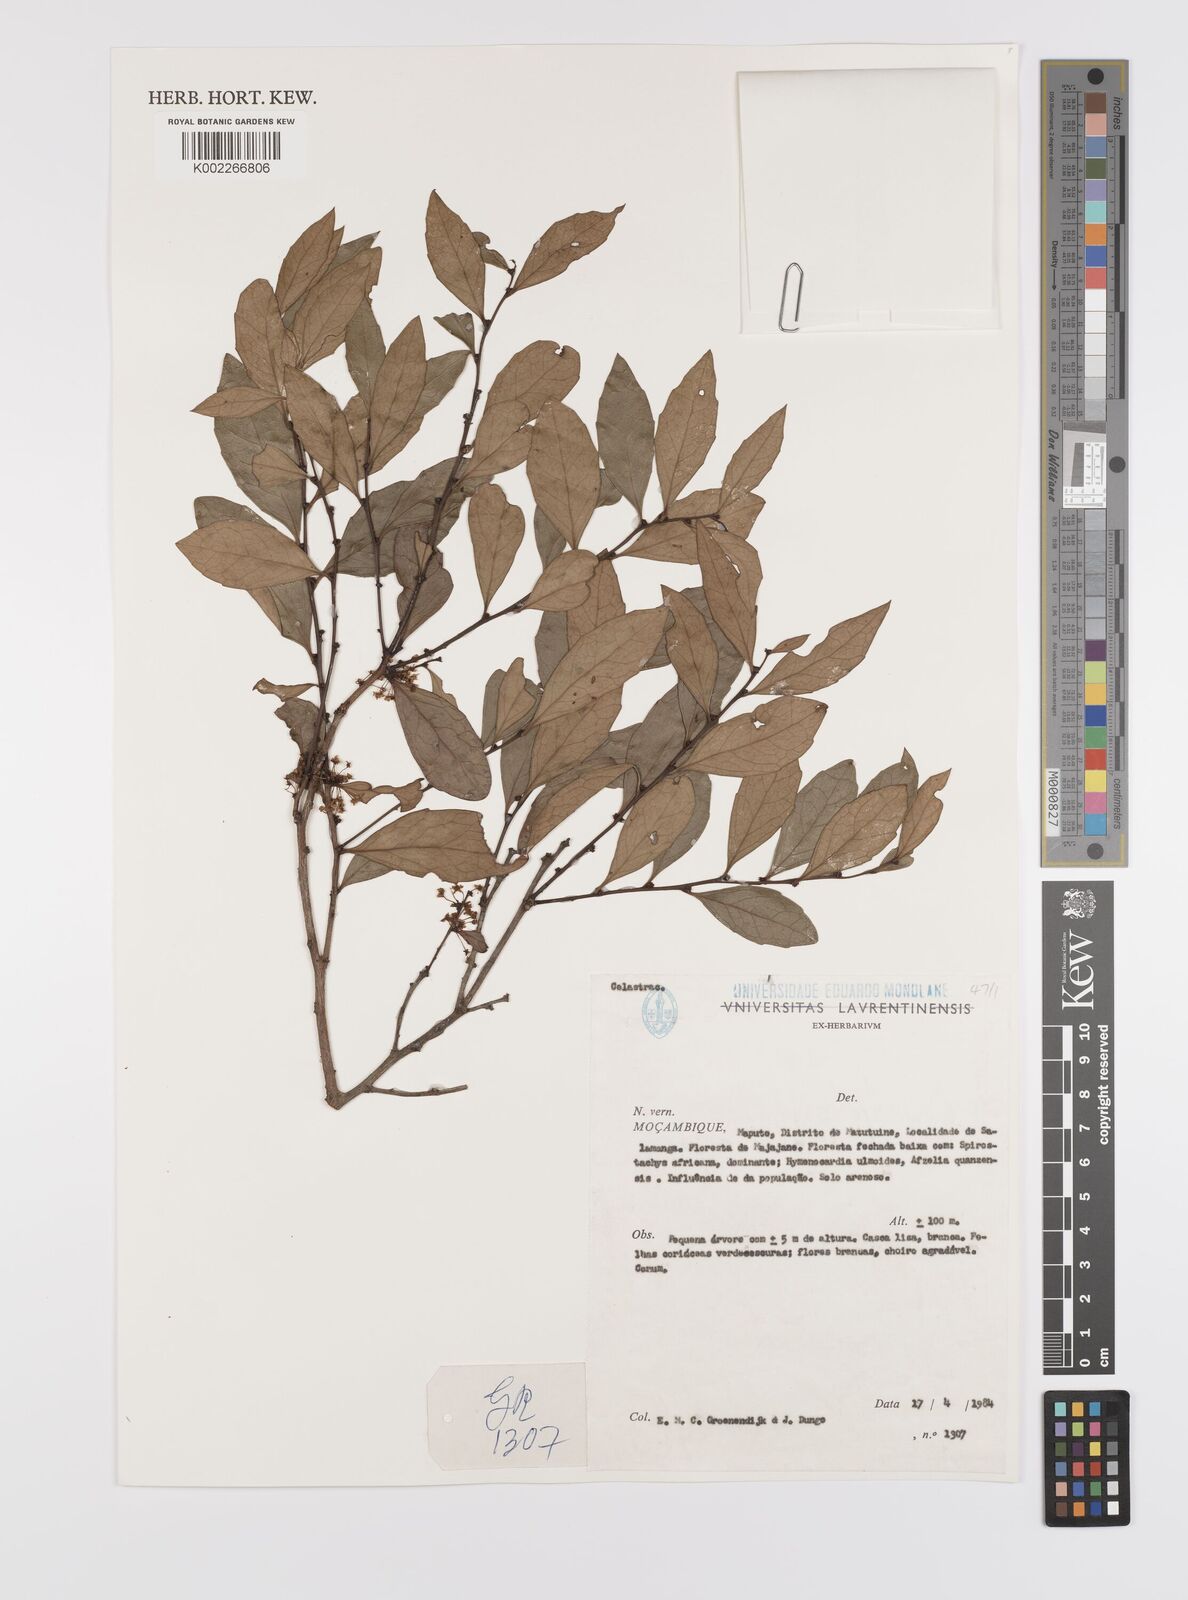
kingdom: Plantae
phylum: Tracheophyta
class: Magnoliopsida
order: Celastrales
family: Celastraceae
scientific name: Celastraceae
